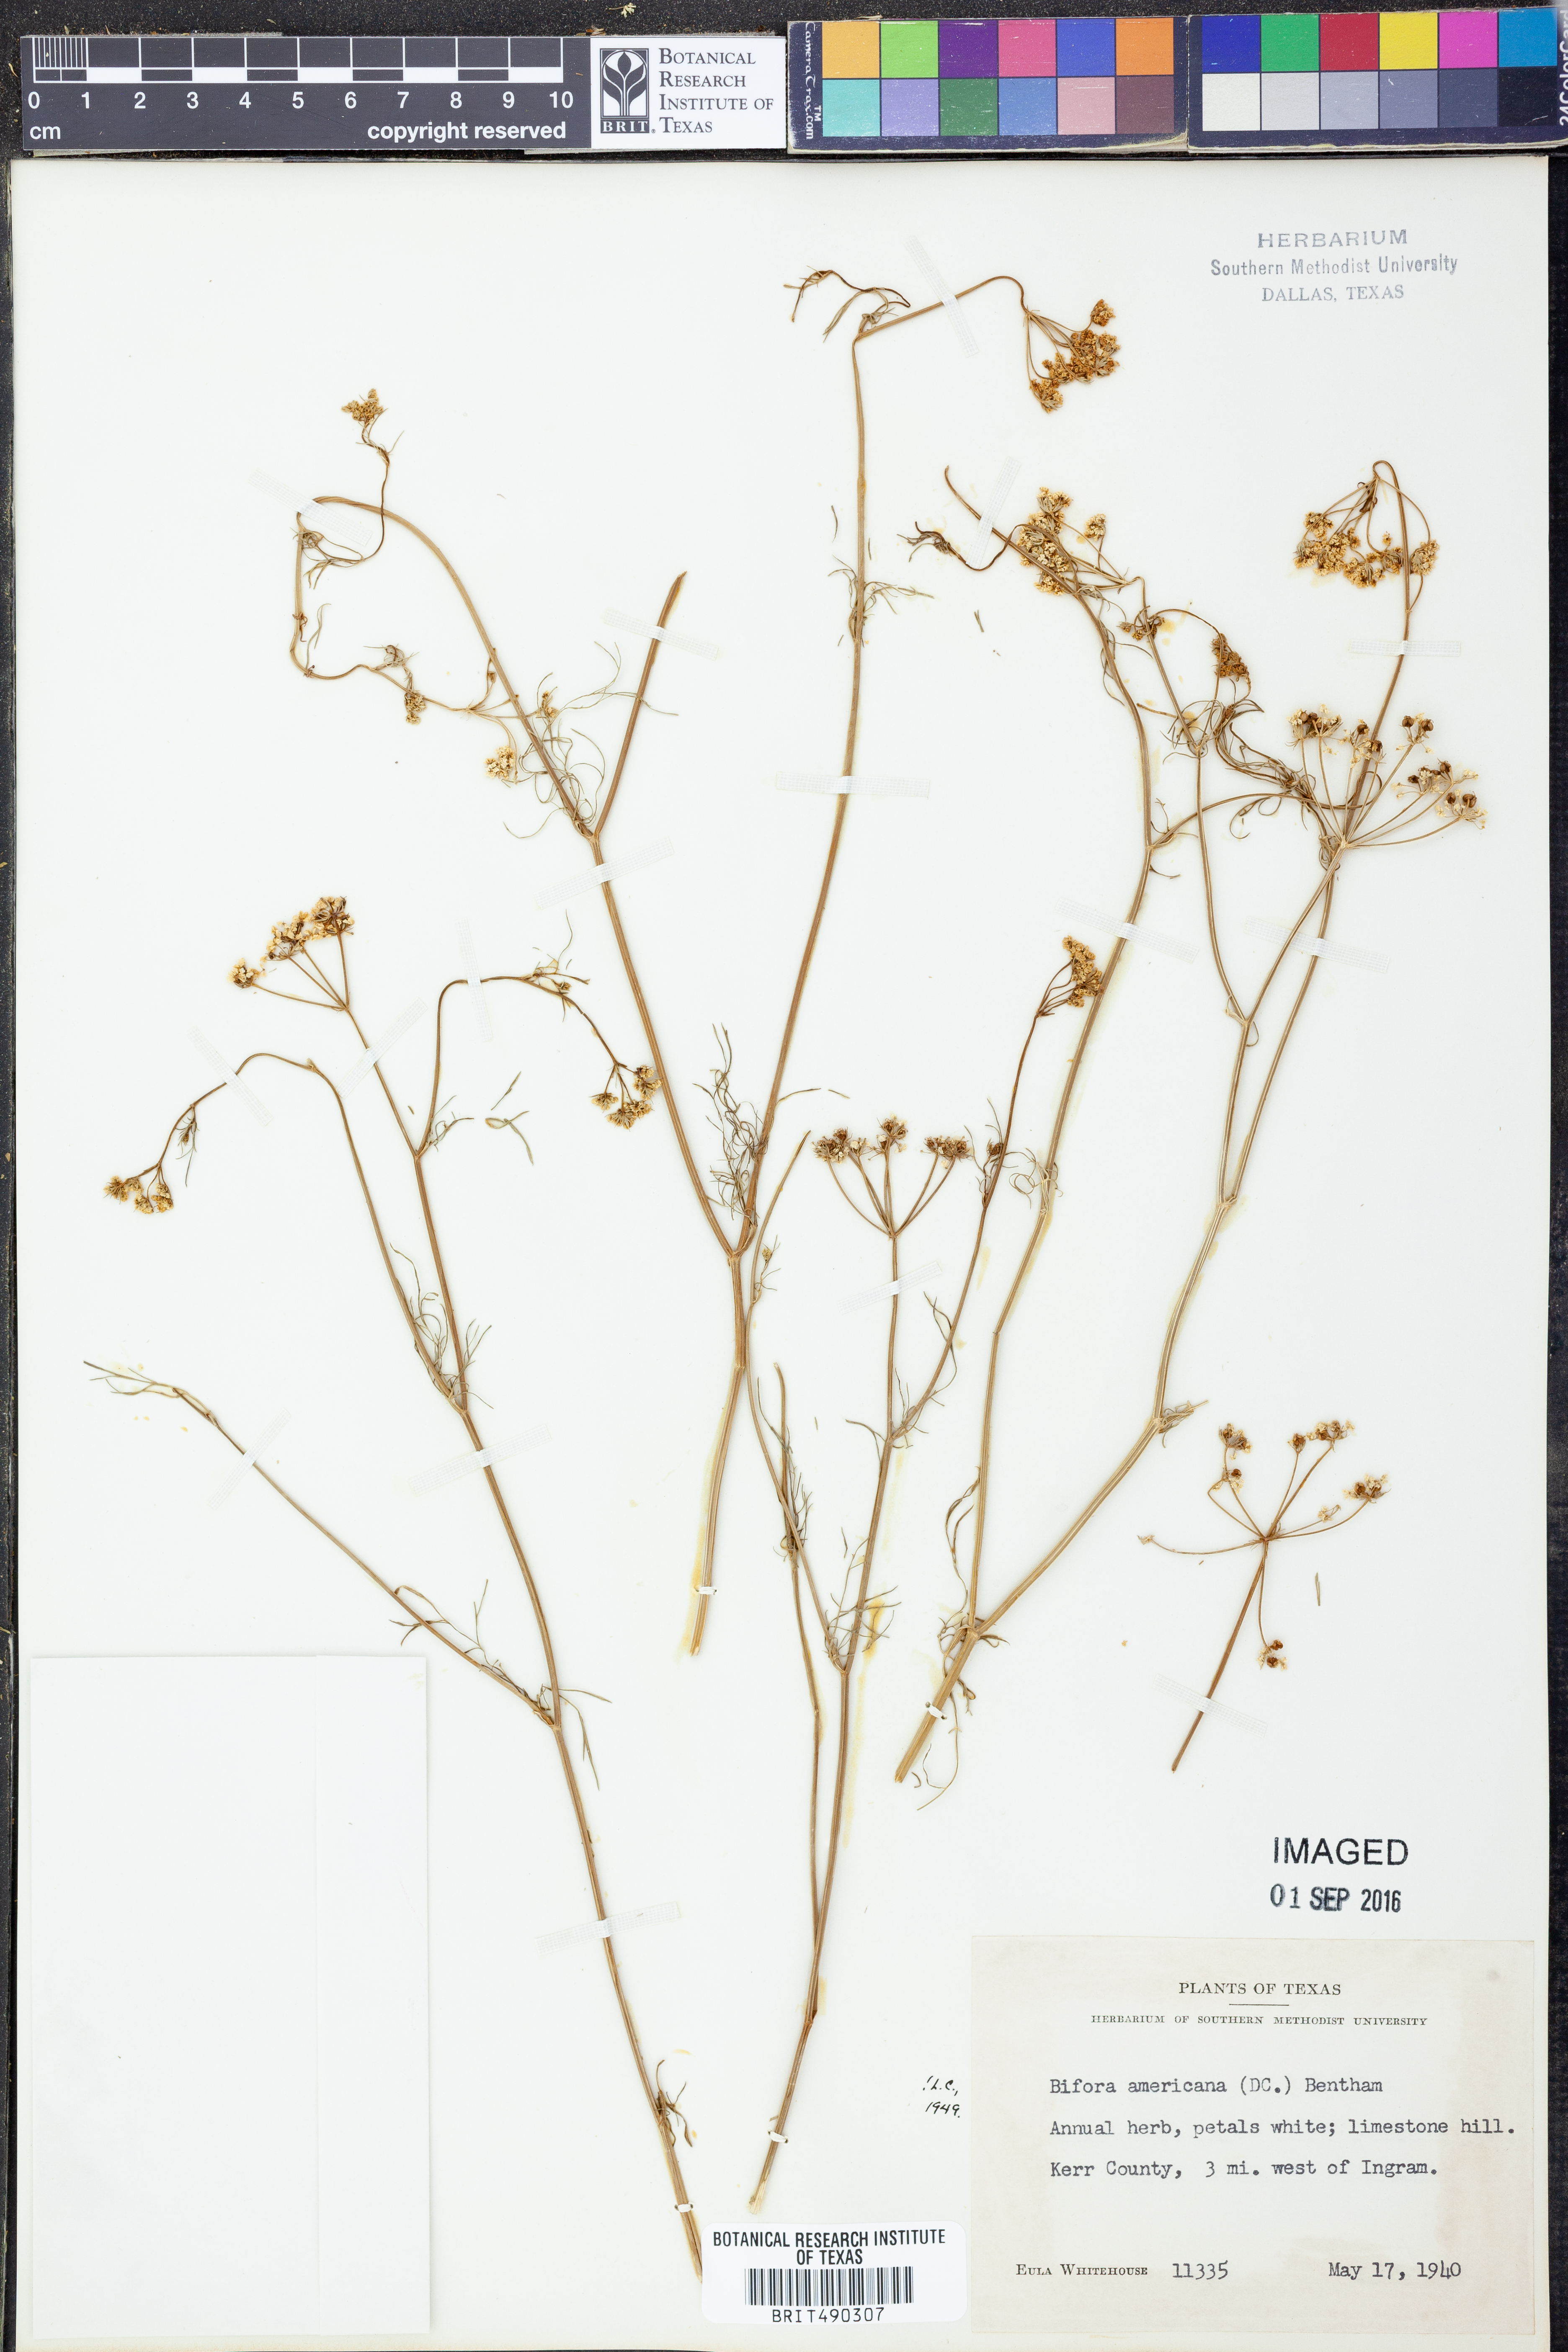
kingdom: Plantae
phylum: Tracheophyta
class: Magnoliopsida
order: Apiales
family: Apiaceae
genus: Atrema
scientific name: Atrema americanum
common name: Prairie-bishop
